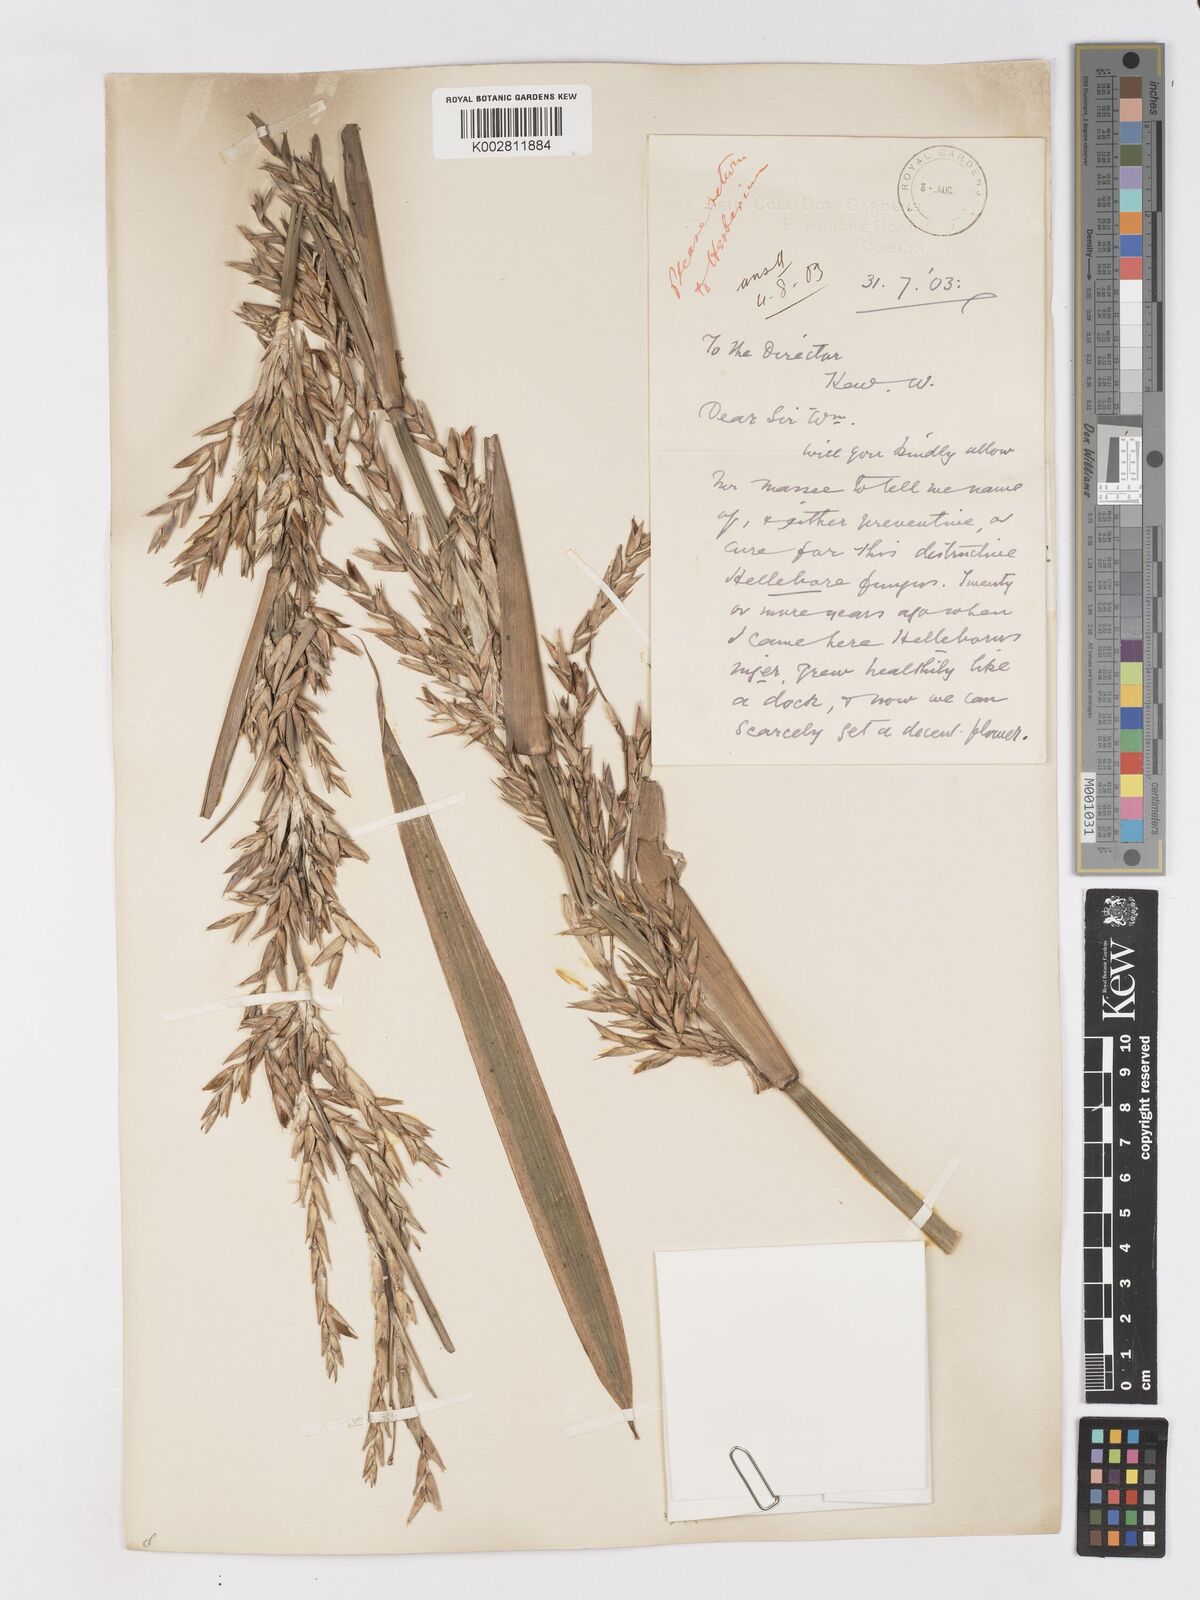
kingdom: Plantae
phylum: Tracheophyta
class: Liliopsida
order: Poales
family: Poaceae
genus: Pleioblastus
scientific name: Pleioblastus simonii
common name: Simon bamboo
